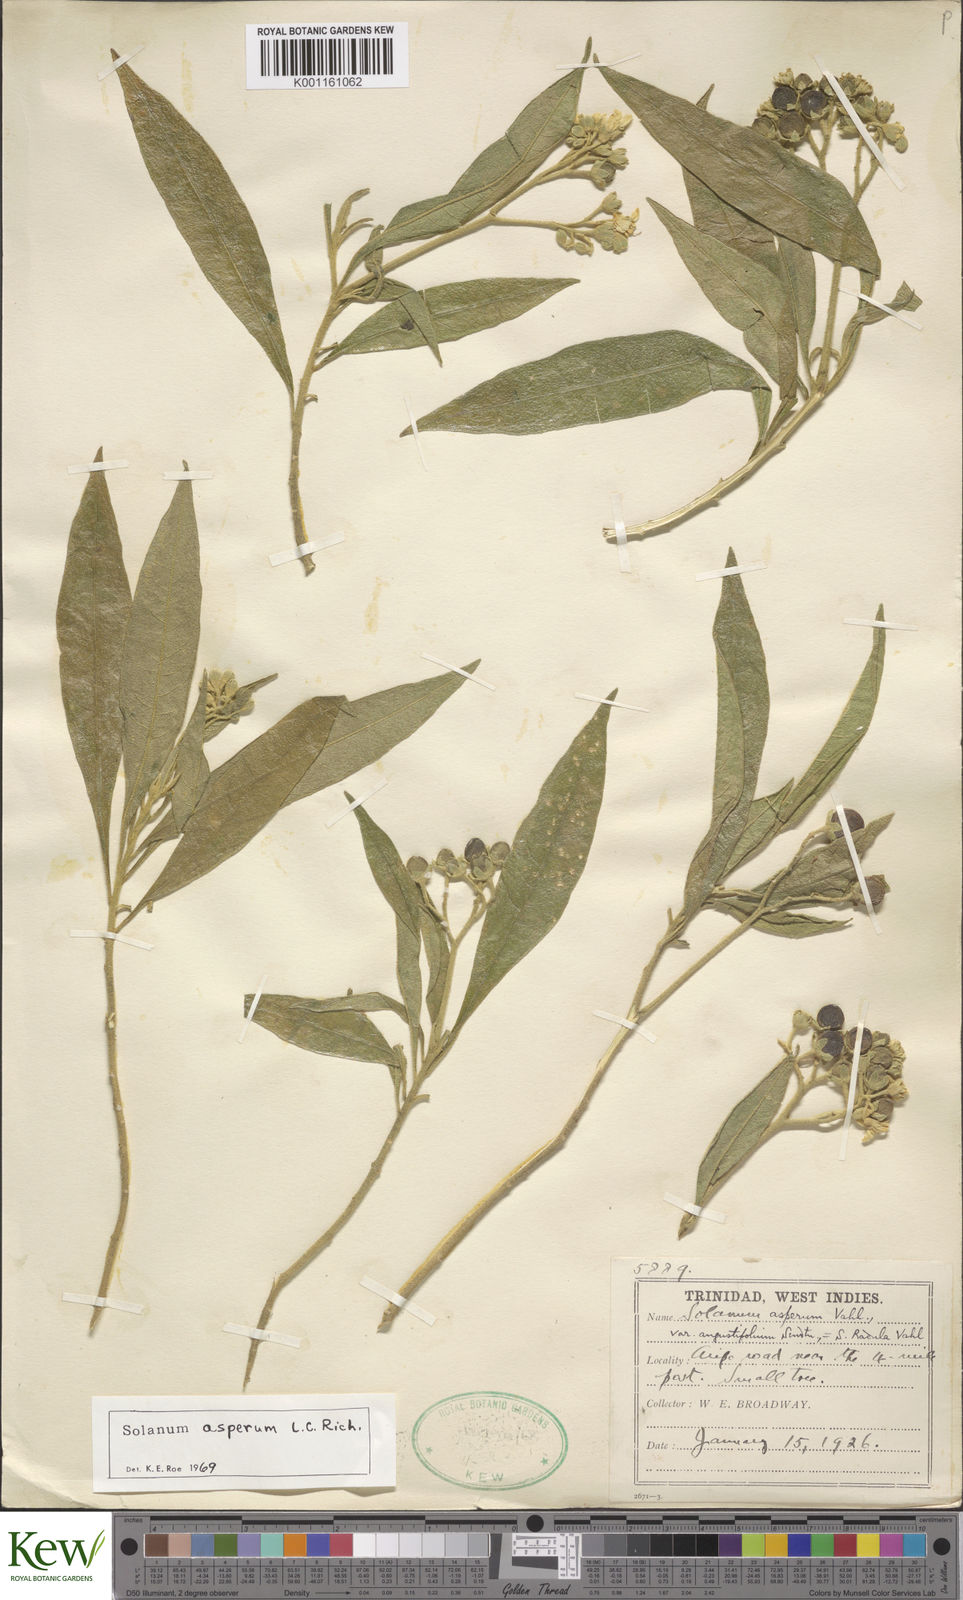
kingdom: Plantae
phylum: Tracheophyta
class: Magnoliopsida
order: Solanales
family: Solanaceae
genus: Solanum
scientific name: Solanum asperum
